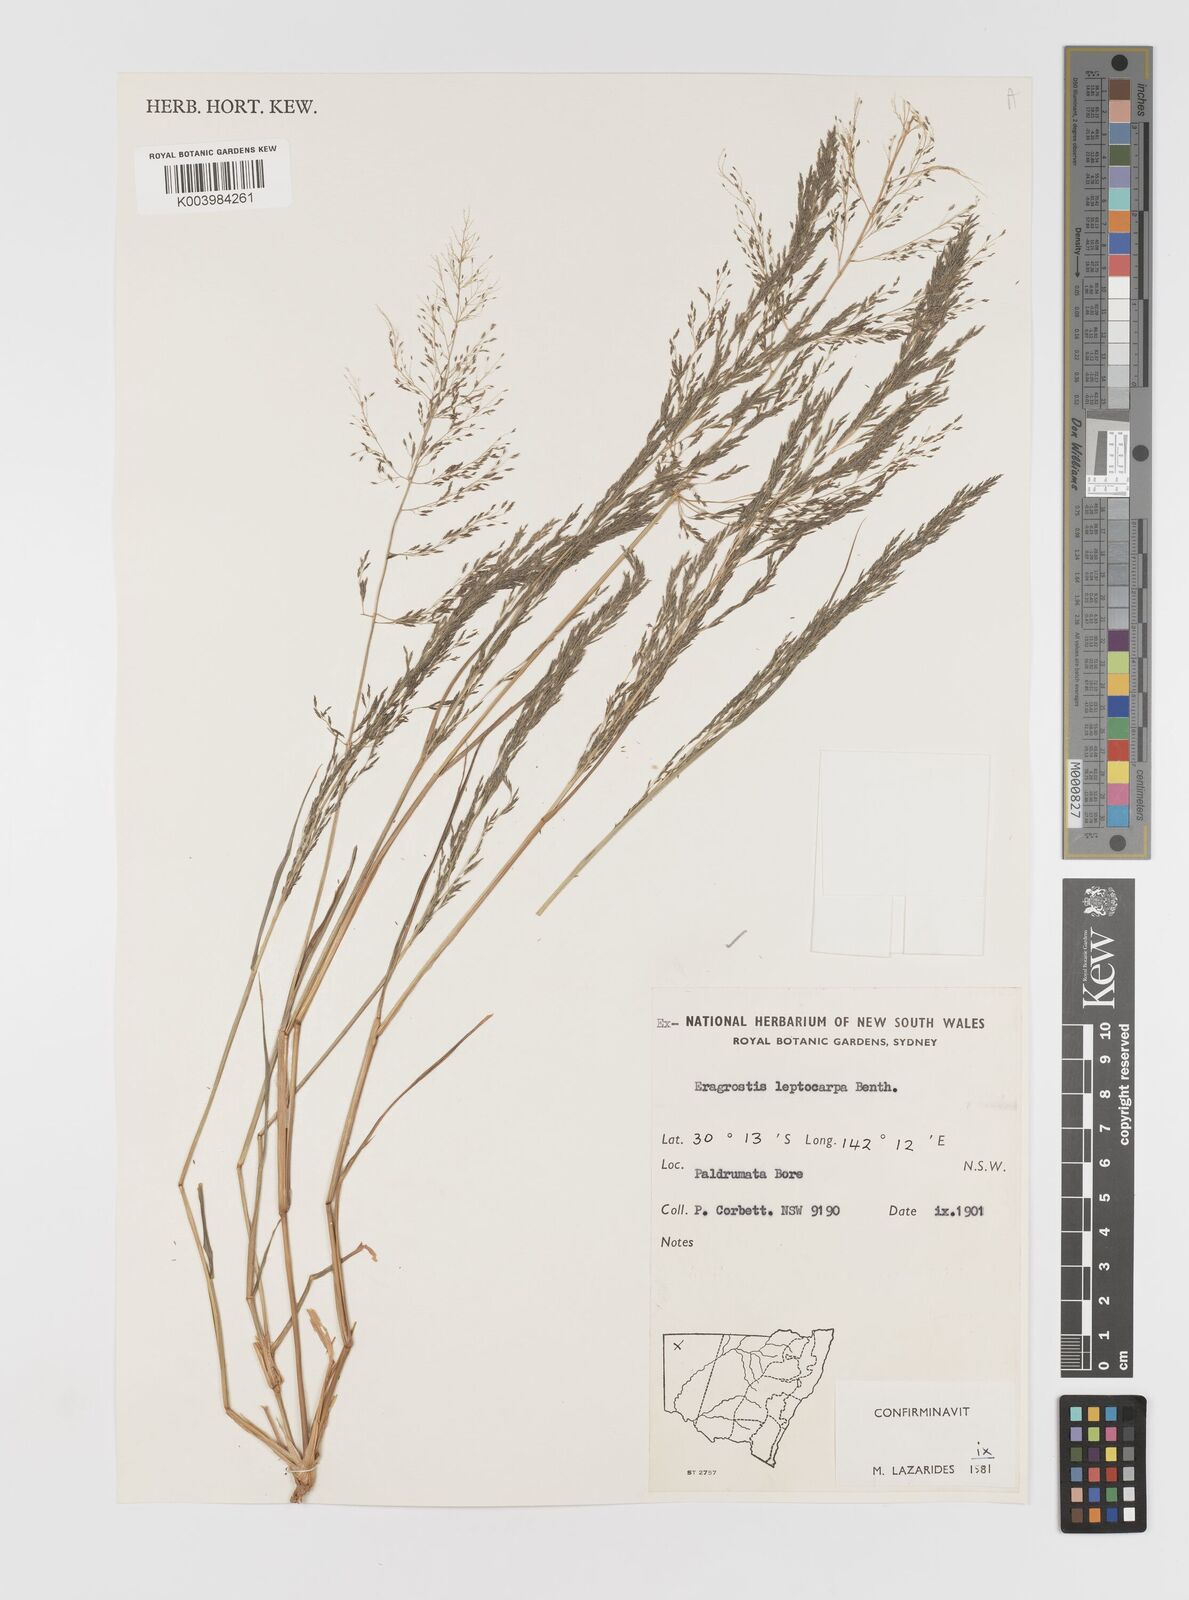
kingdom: Plantae
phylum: Tracheophyta
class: Liliopsida
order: Poales
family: Poaceae
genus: Eragrostis
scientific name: Eragrostis leptocarpa
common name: Drooping love grass
